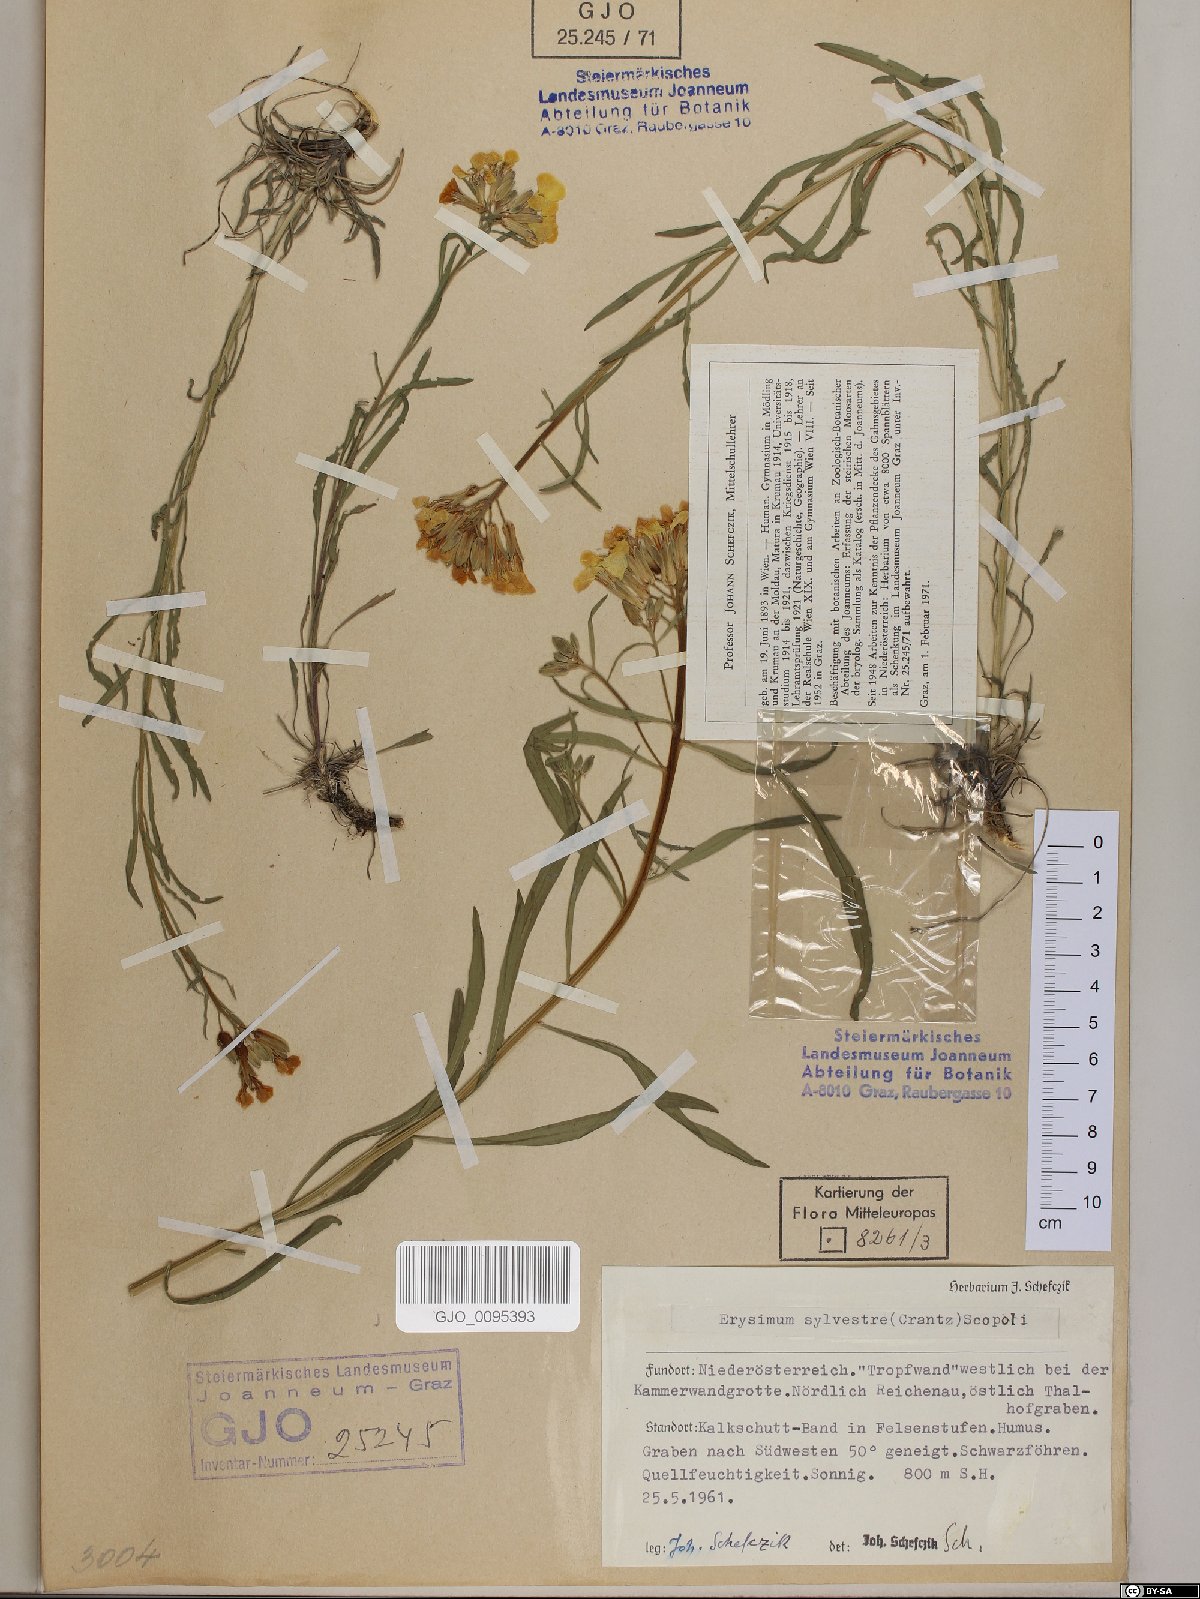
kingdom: Plantae
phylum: Tracheophyta
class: Magnoliopsida
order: Brassicales
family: Brassicaceae
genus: Erysimum
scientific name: Erysimum sylvestre
